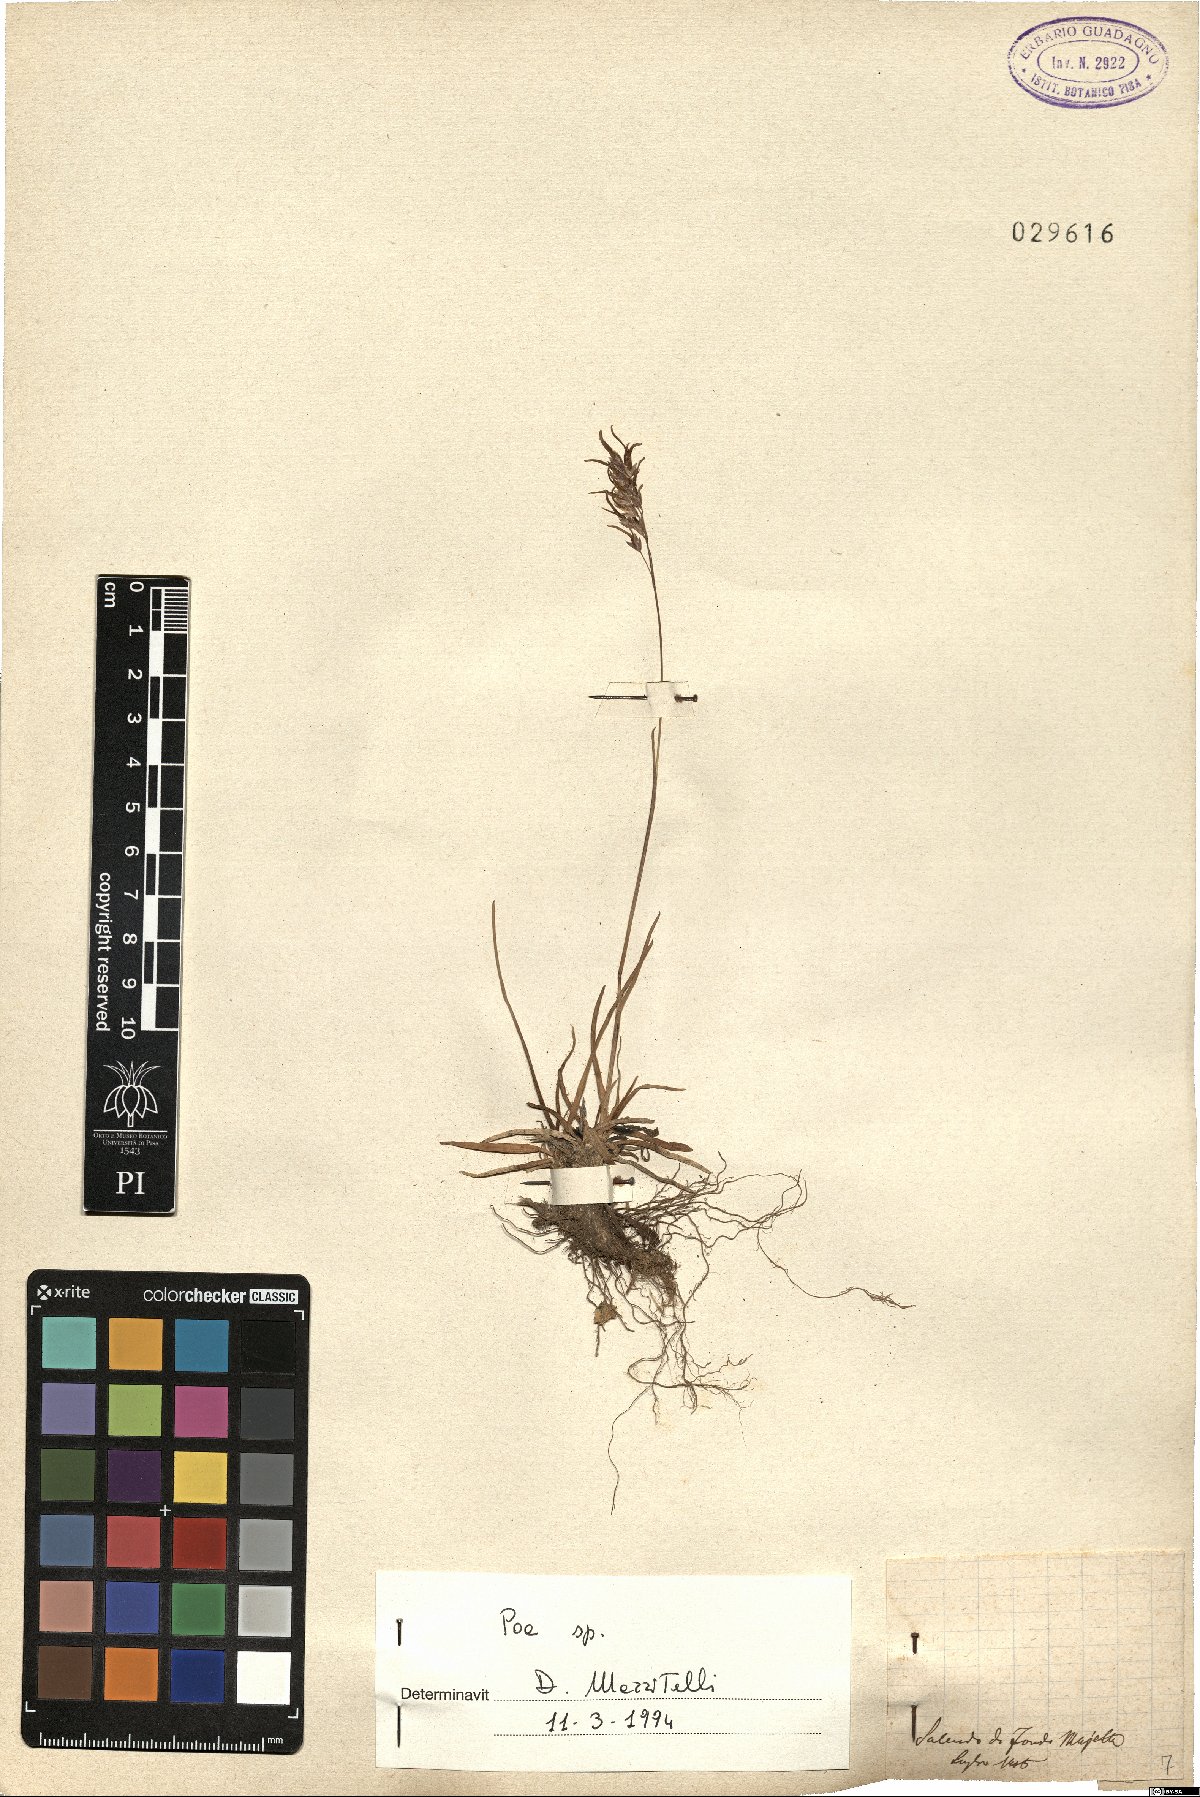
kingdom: Plantae
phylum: Tracheophyta
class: Liliopsida
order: Poales
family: Poaceae
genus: Poa
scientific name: Poa
